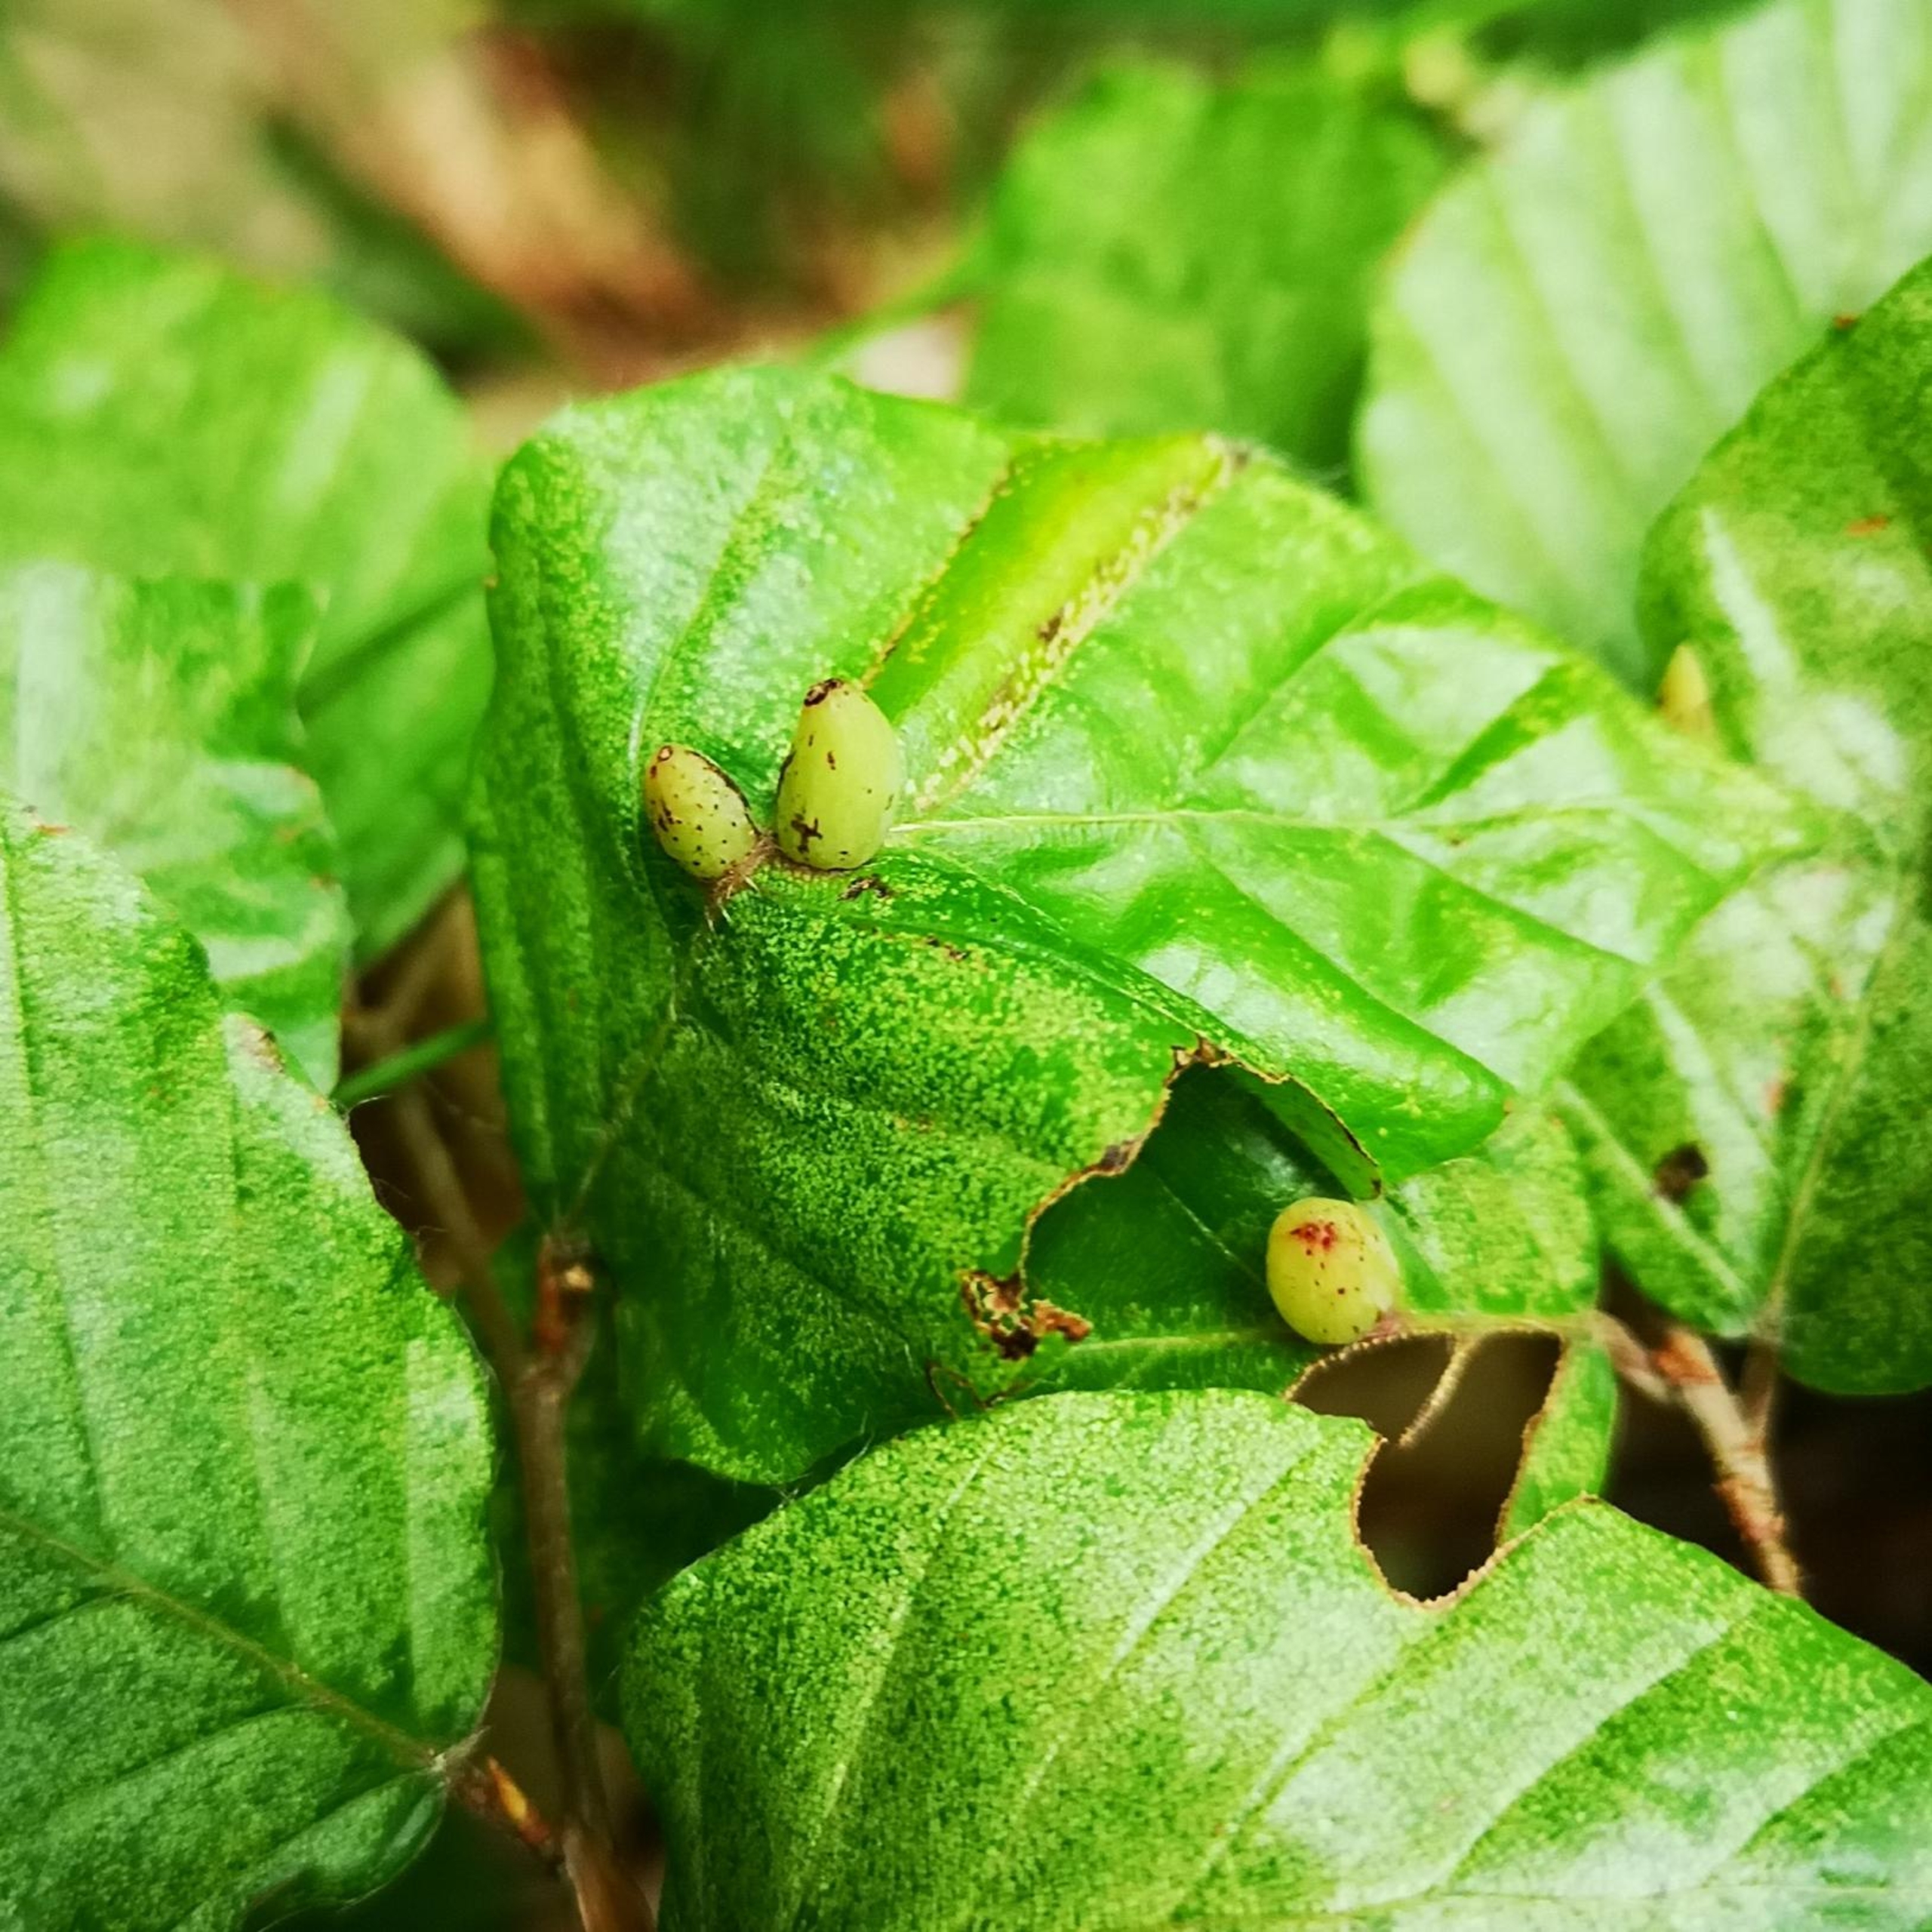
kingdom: Animalia
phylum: Arthropoda
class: Insecta
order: Diptera
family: Cecidomyiidae
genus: Mikiola
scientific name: Mikiola fagi
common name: Bøgegalmyg
